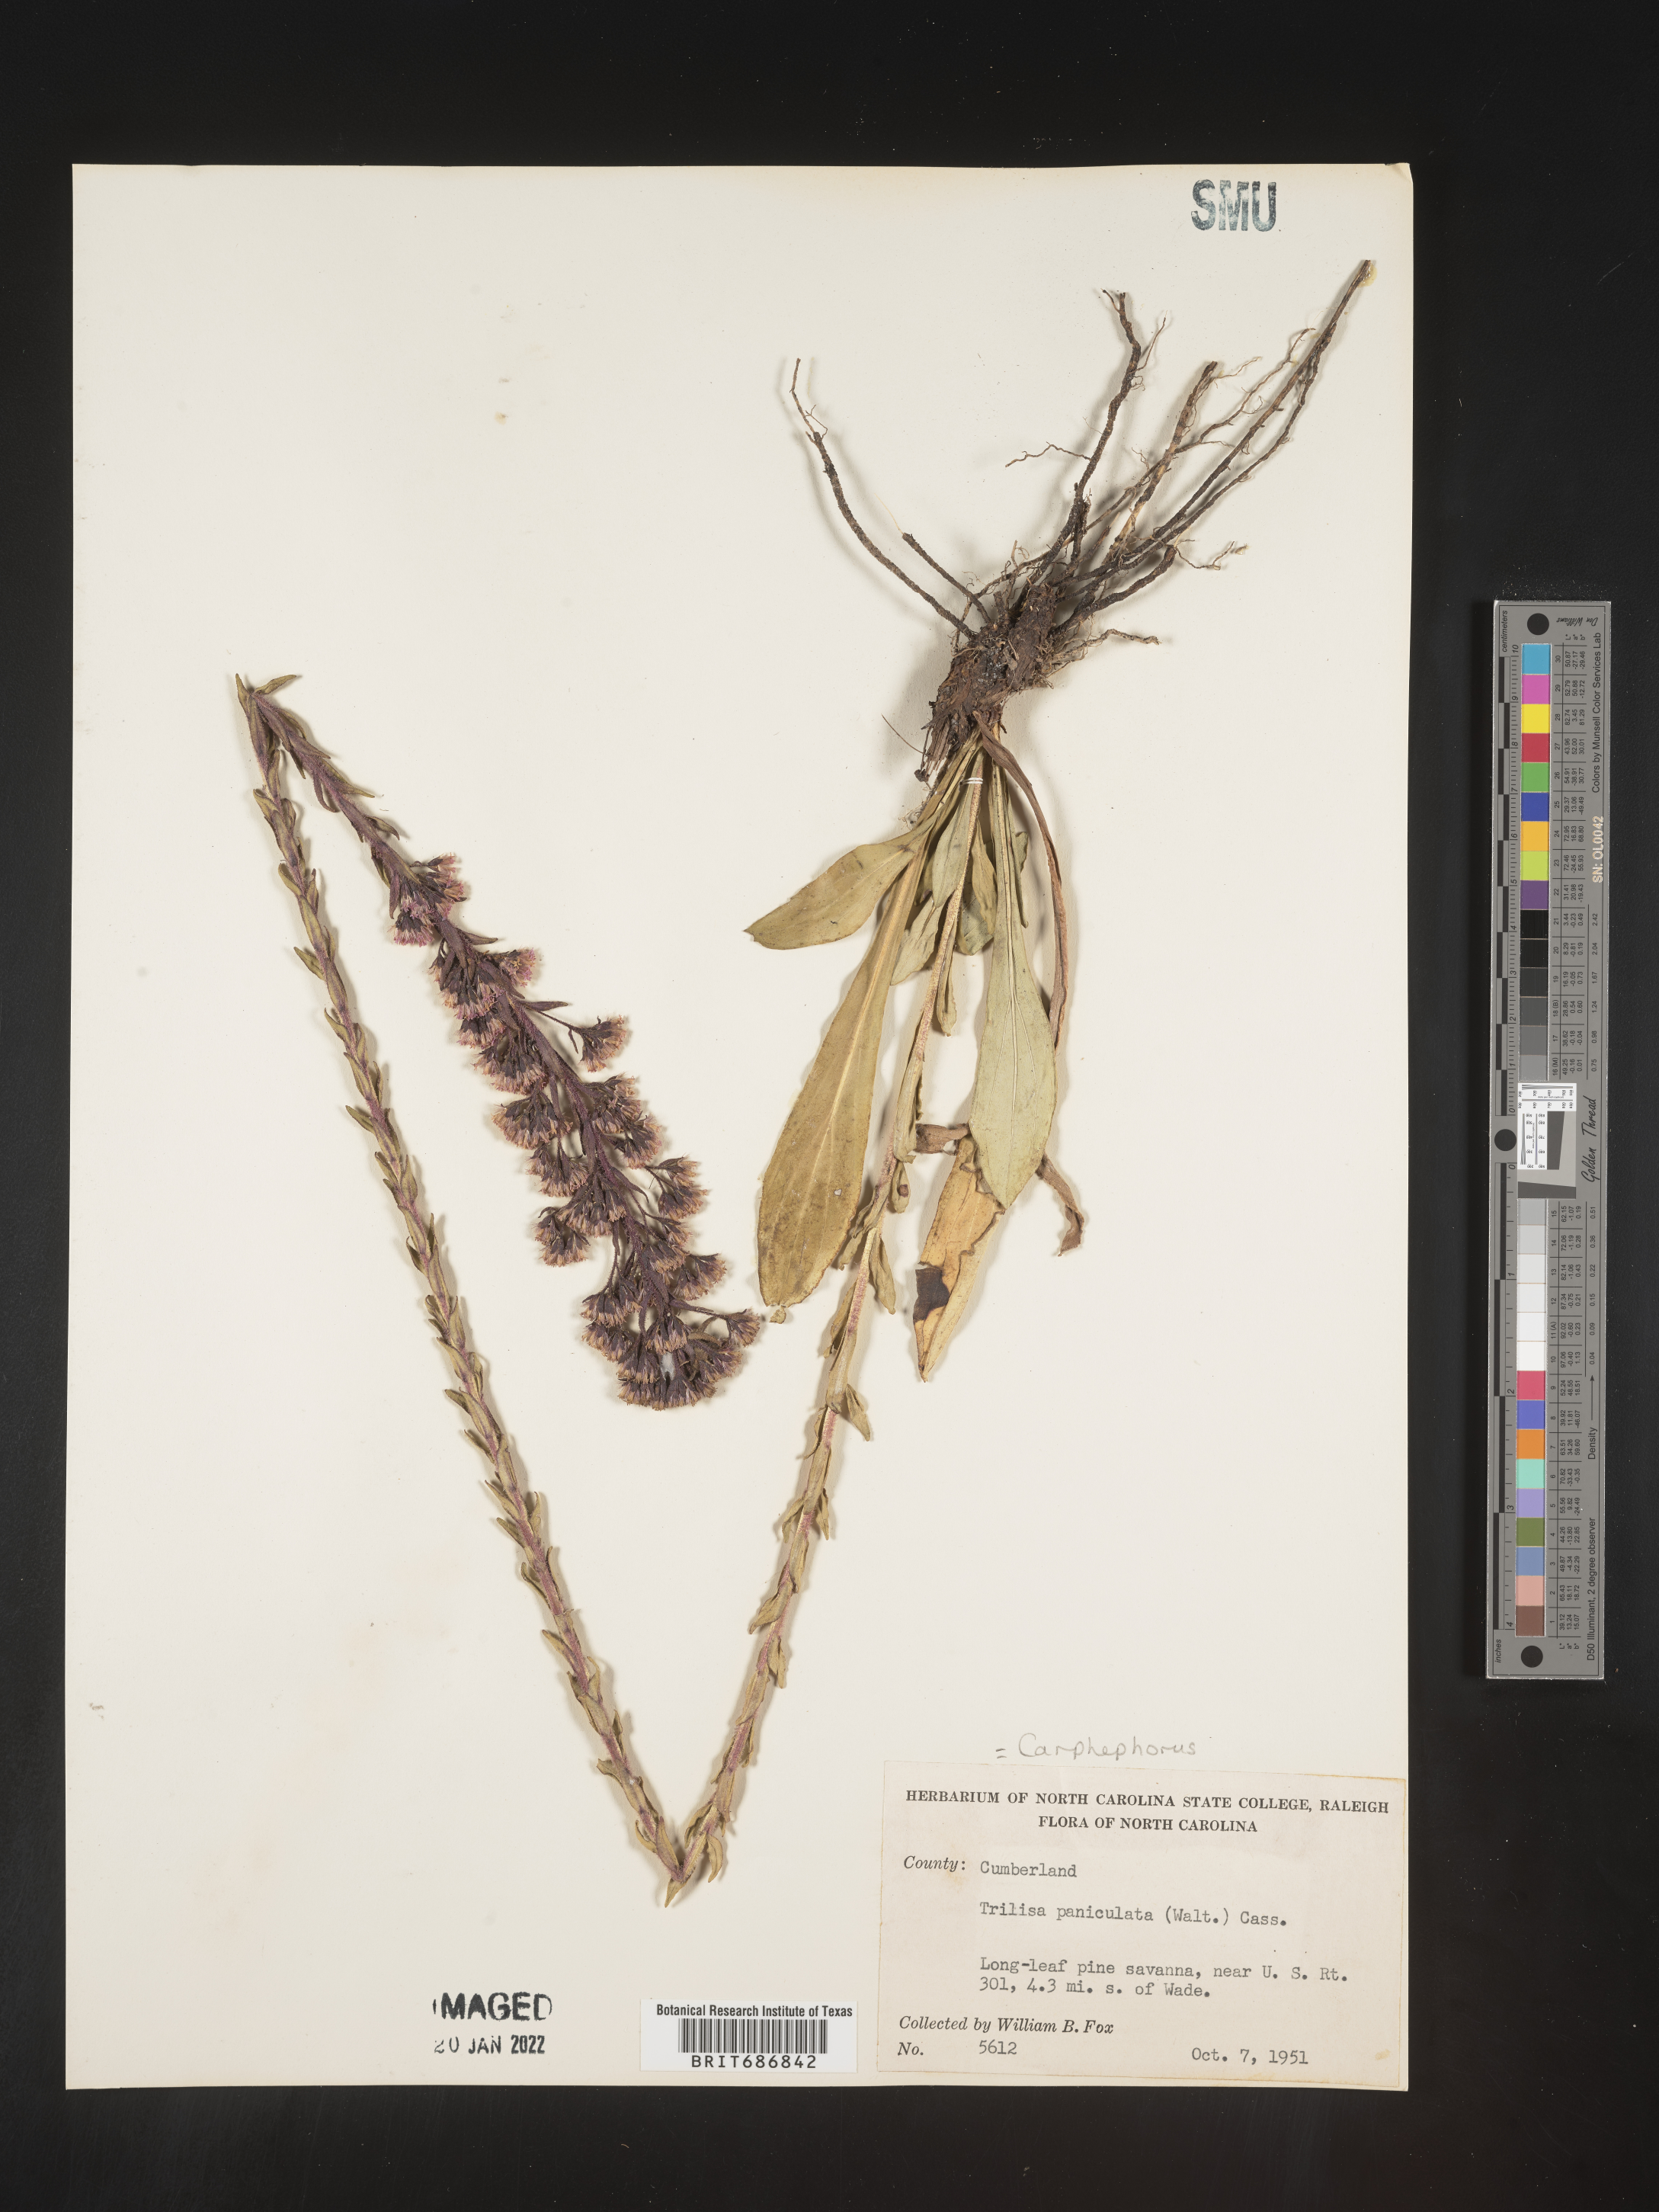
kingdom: Plantae
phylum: Tracheophyta
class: Magnoliopsida
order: Asterales
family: Asteraceae
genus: Carphephorus
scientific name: Carphephorus paniculatus
